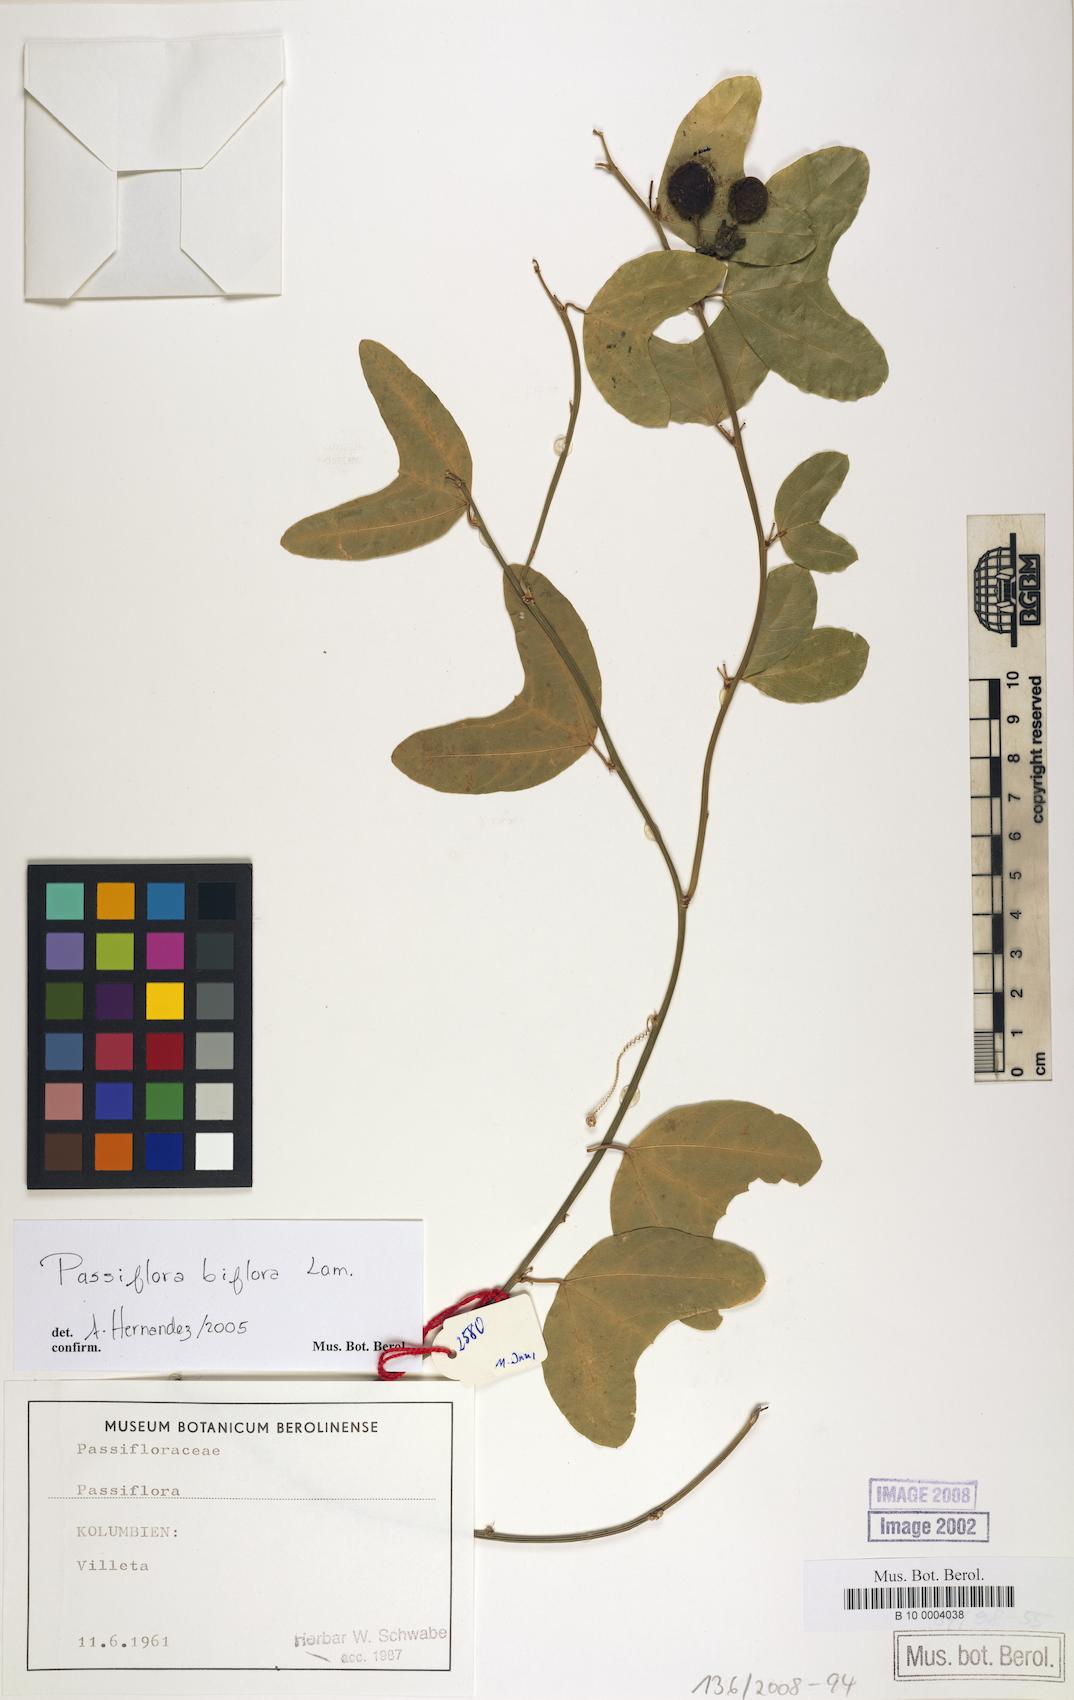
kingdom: Plantae
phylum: Tracheophyta
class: Magnoliopsida
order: Malpighiales
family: Passifloraceae
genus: Passiflora
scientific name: Passiflora biflora
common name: Twoflower passionflower
